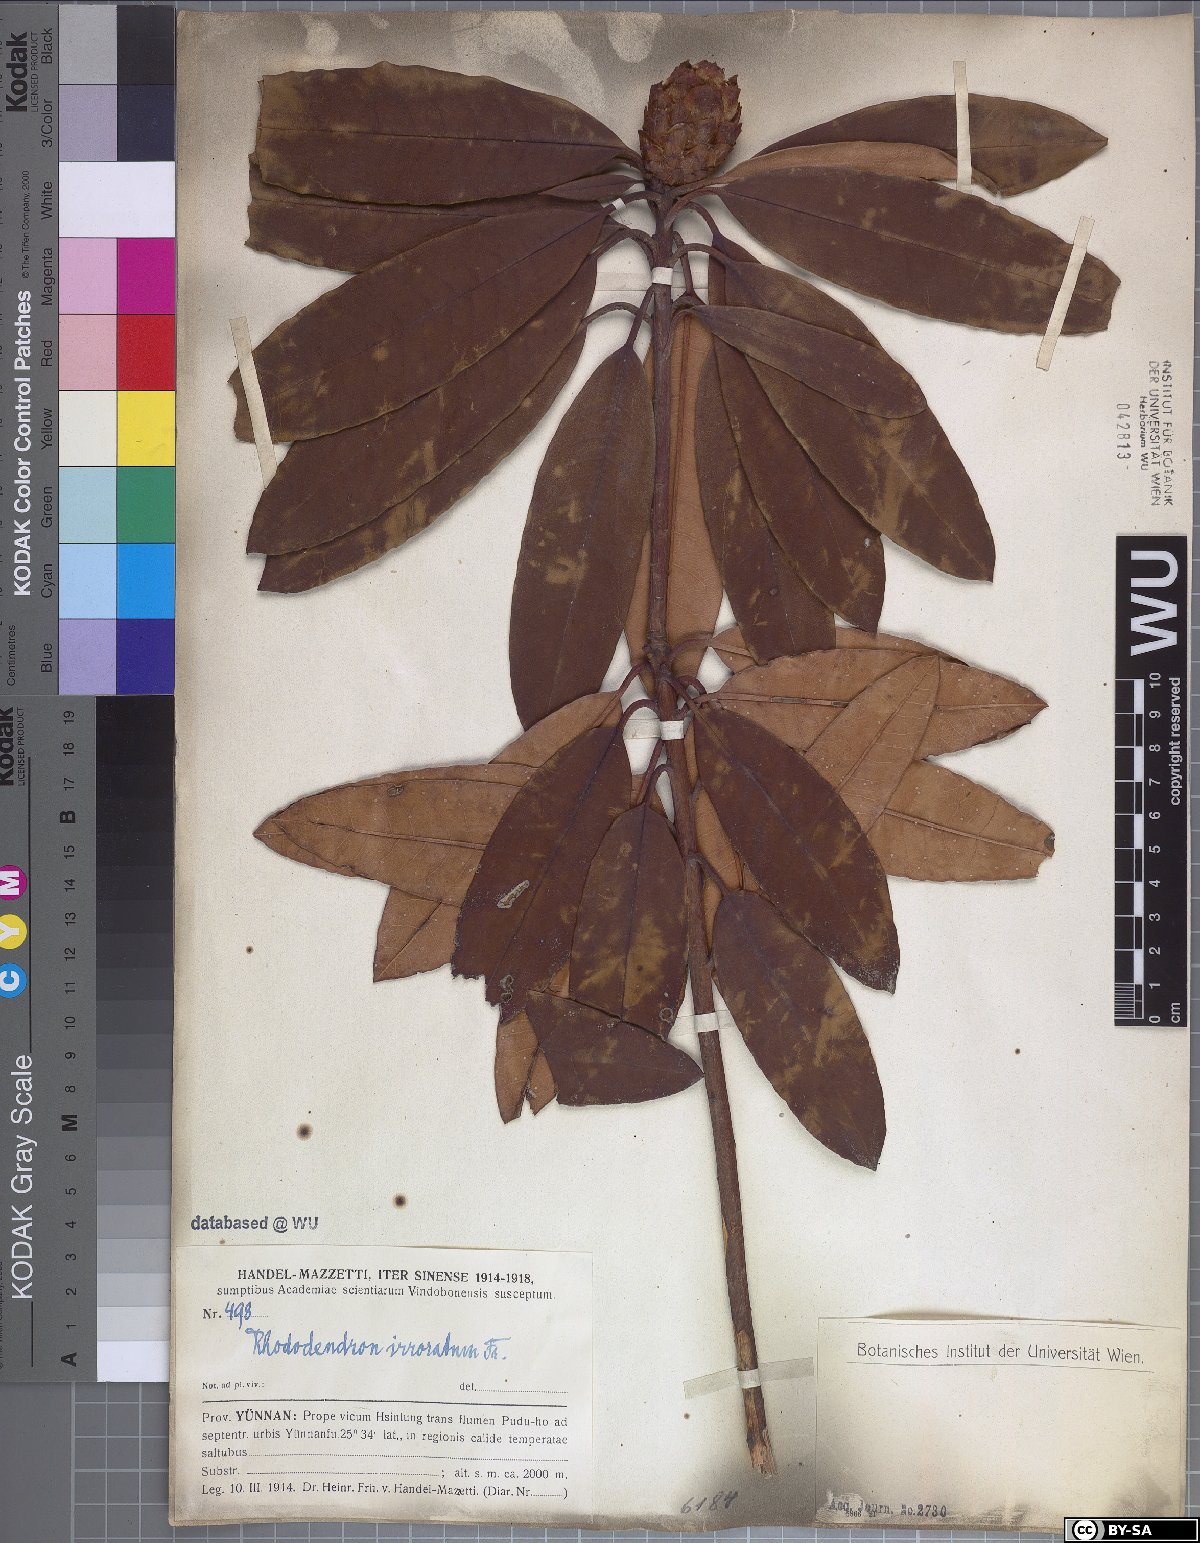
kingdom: Plantae
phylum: Tracheophyta
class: Magnoliopsida
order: Ericales
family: Ericaceae
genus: Rhododendron
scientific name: Rhododendron irroratum
